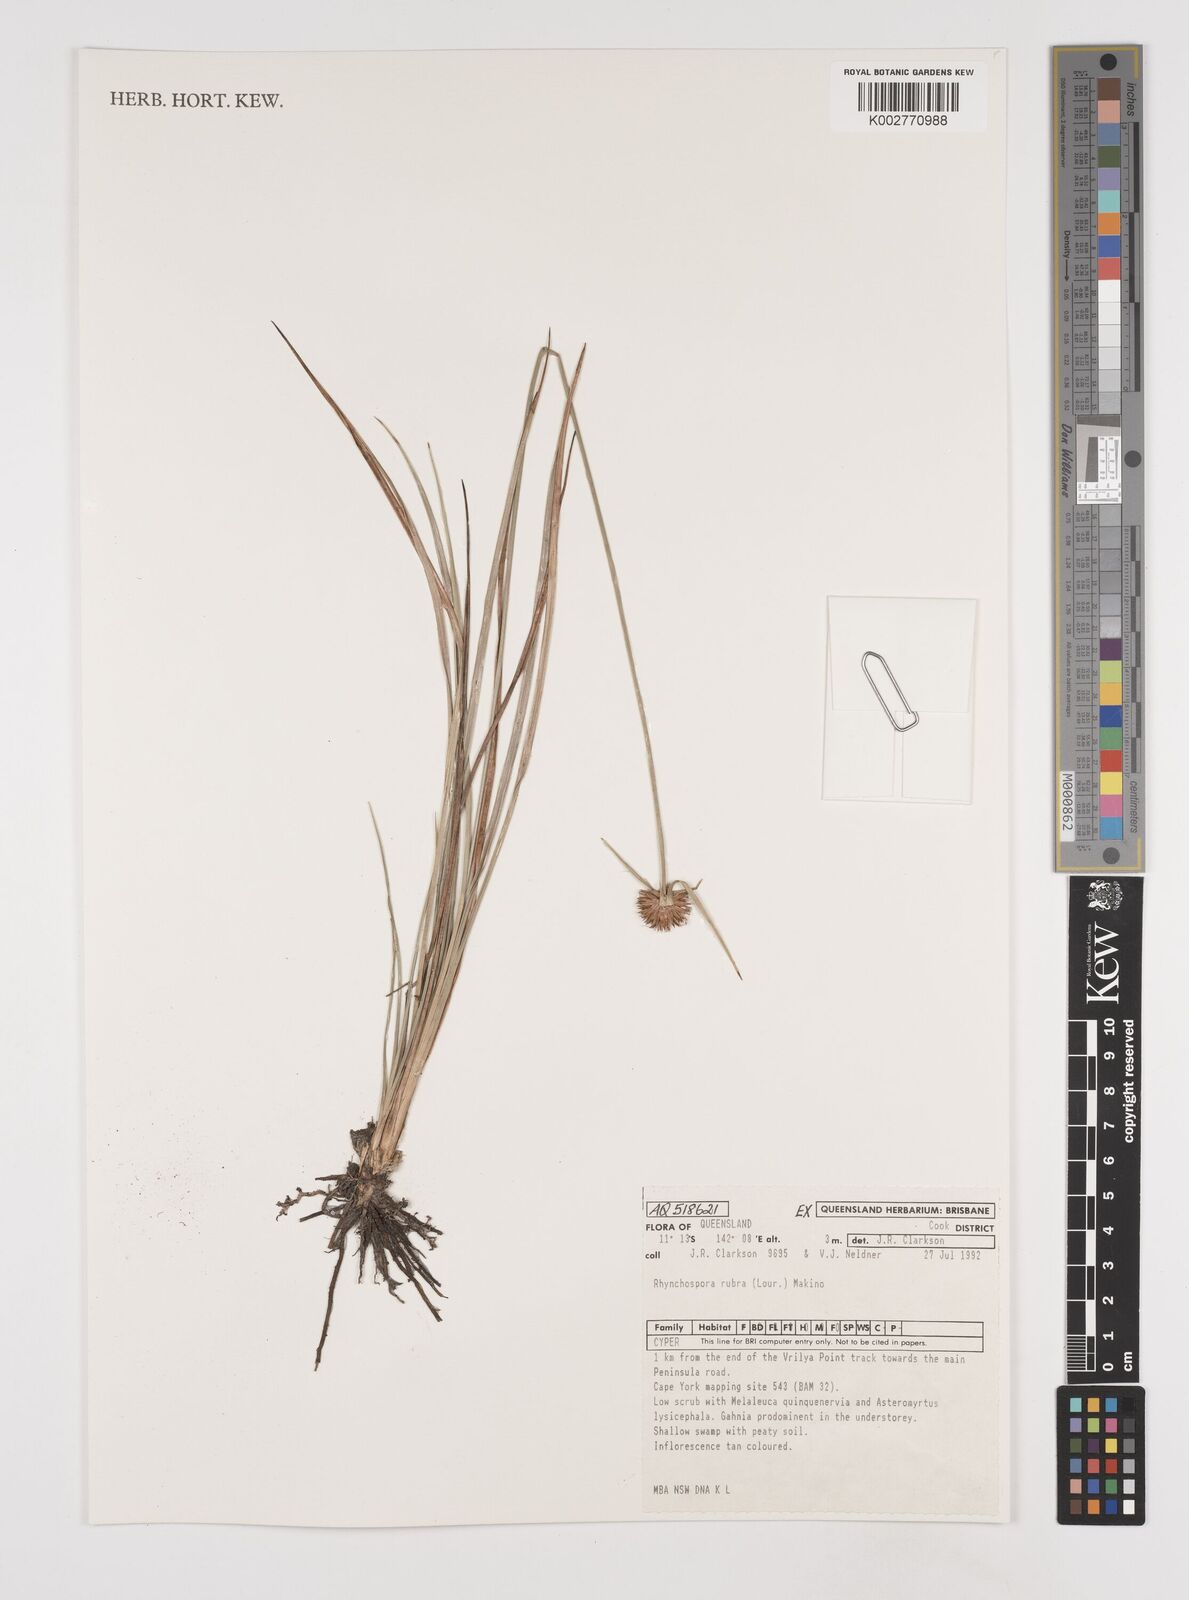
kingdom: Plantae
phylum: Tracheophyta
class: Liliopsida
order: Poales
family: Cyperaceae
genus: Rhynchospora
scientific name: Rhynchospora rubra
